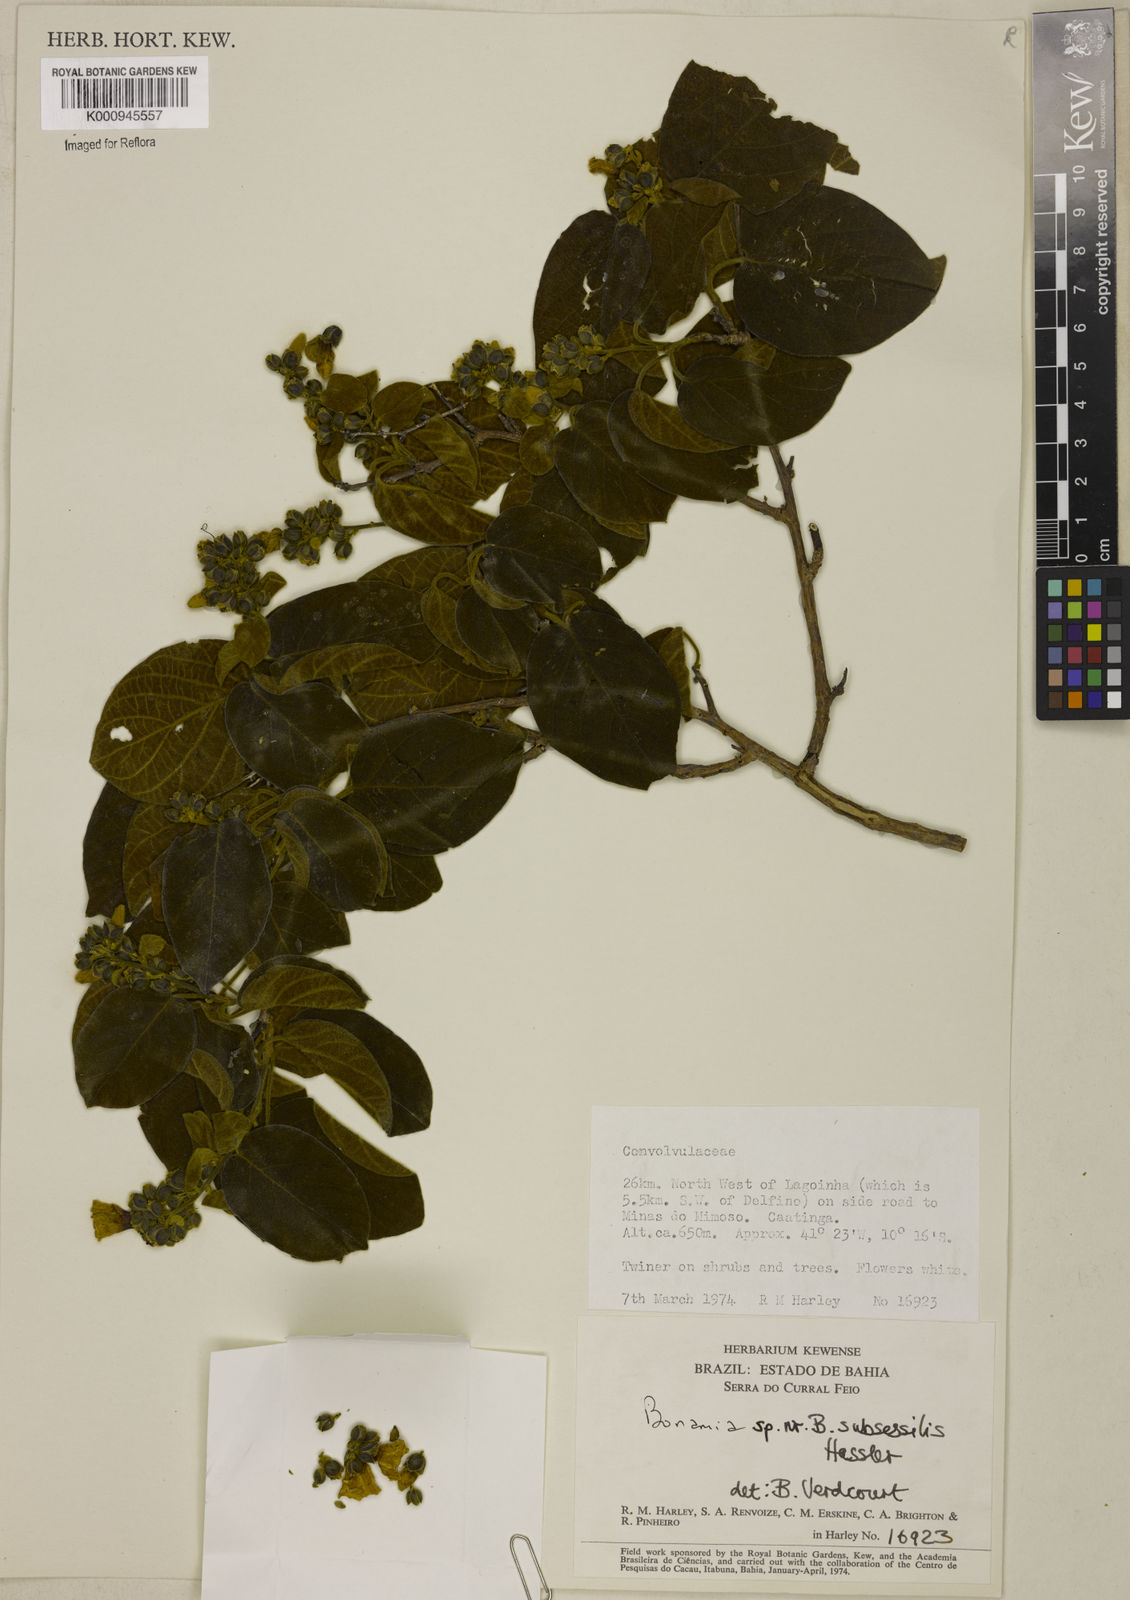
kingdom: Plantae
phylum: Tracheophyta
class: Magnoliopsida
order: Solanales
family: Convolvulaceae
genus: Bonamia
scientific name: Bonamia
